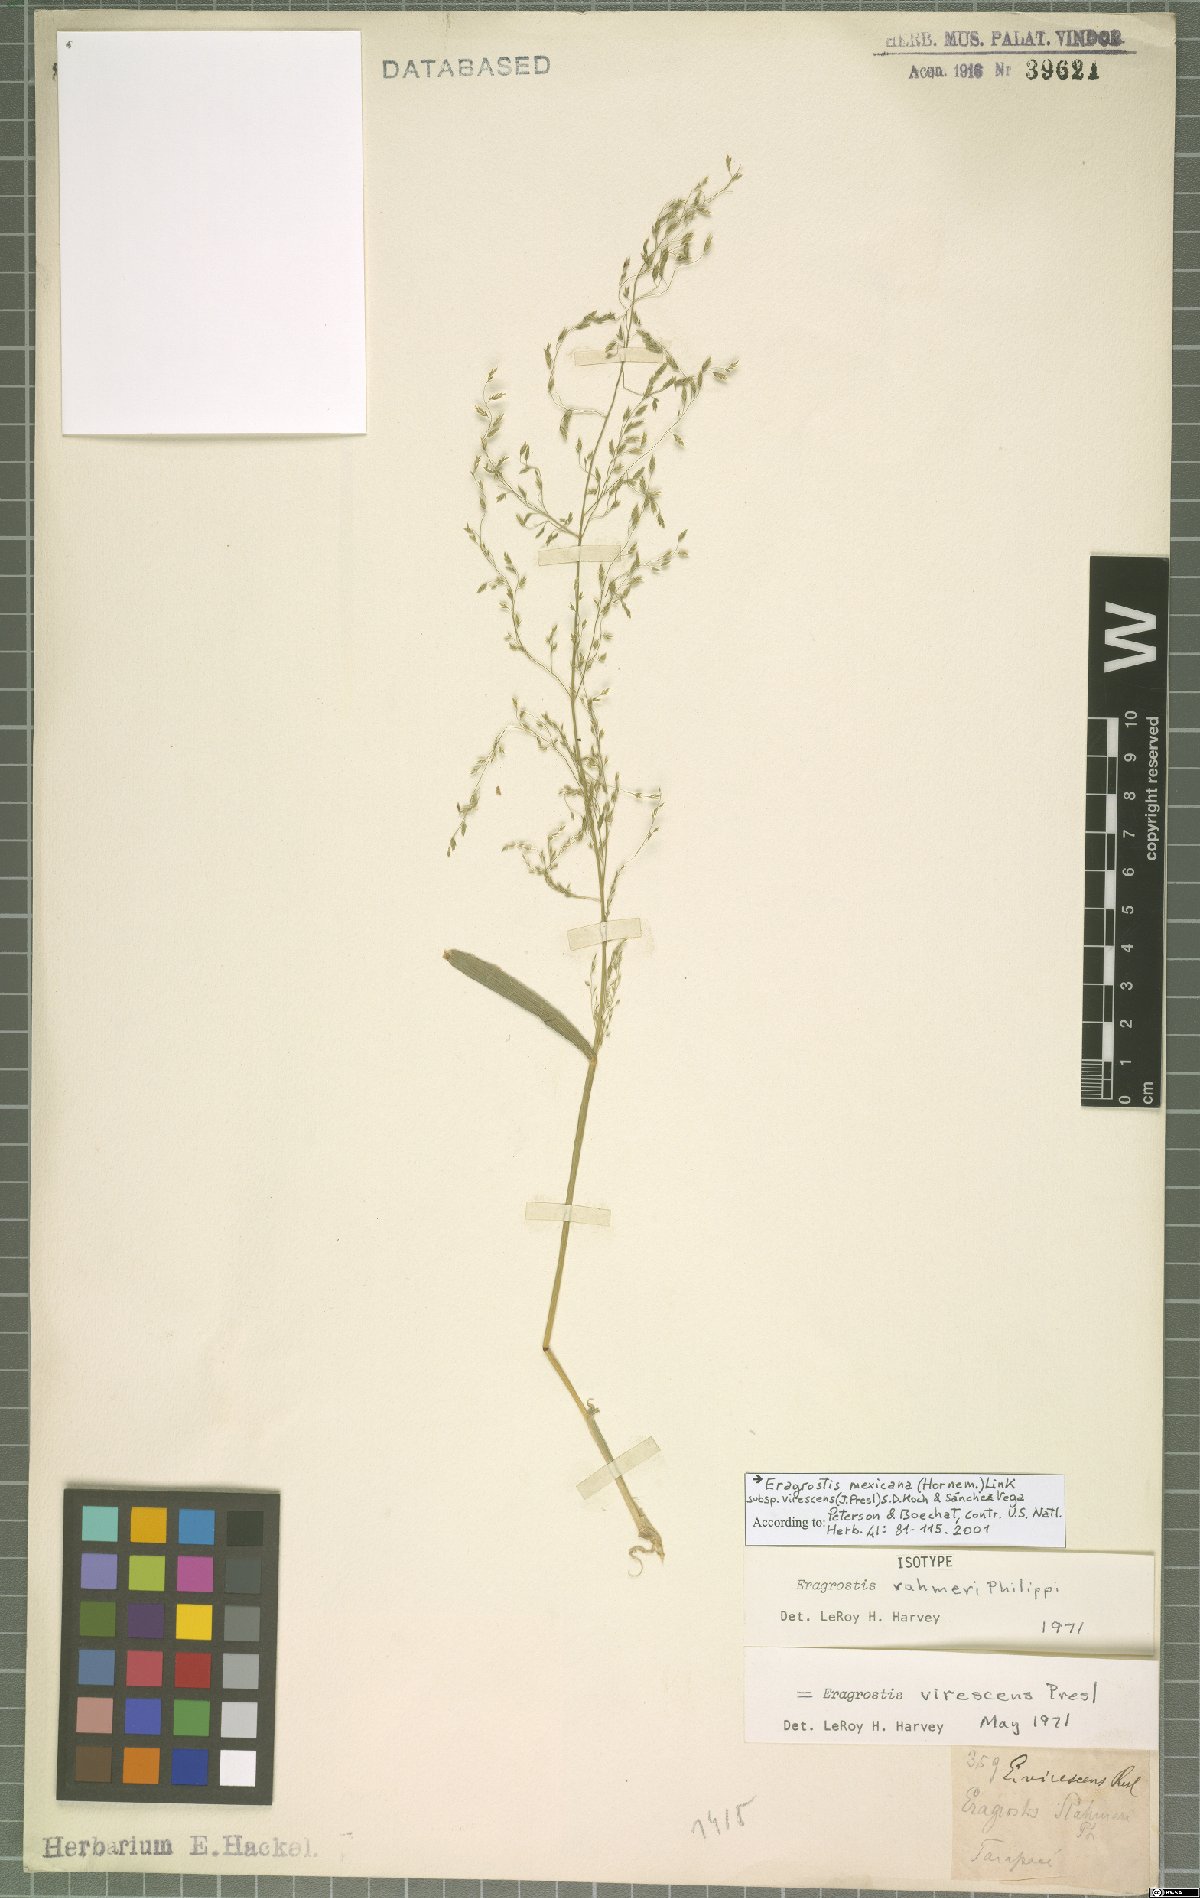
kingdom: Plantae
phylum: Tracheophyta
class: Liliopsida
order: Poales
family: Poaceae
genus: Eragrostis
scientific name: Eragrostis virescens
